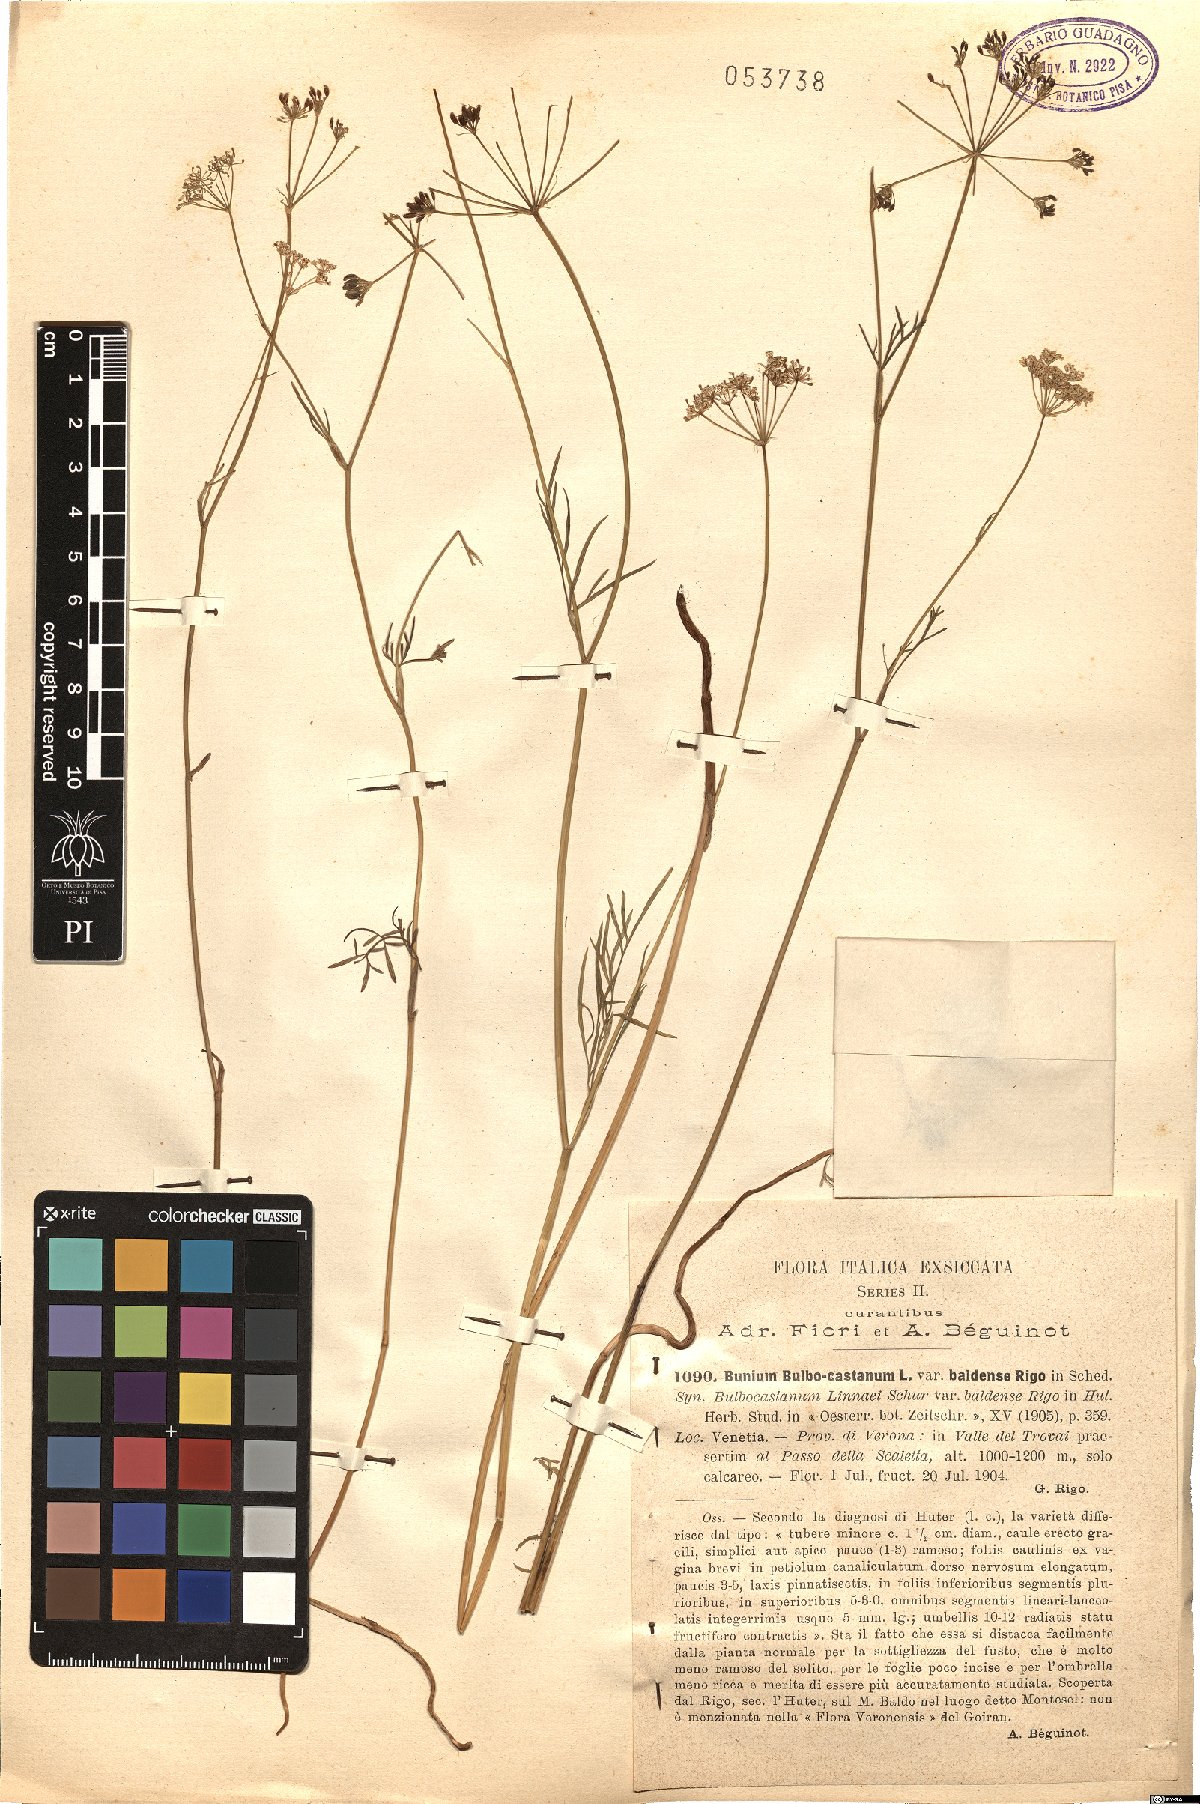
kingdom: Plantae
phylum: Tracheophyta
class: Magnoliopsida
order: Apiales
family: Apiaceae
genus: Bunium
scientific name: Bunium bulbocastanum
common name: Great pignut
